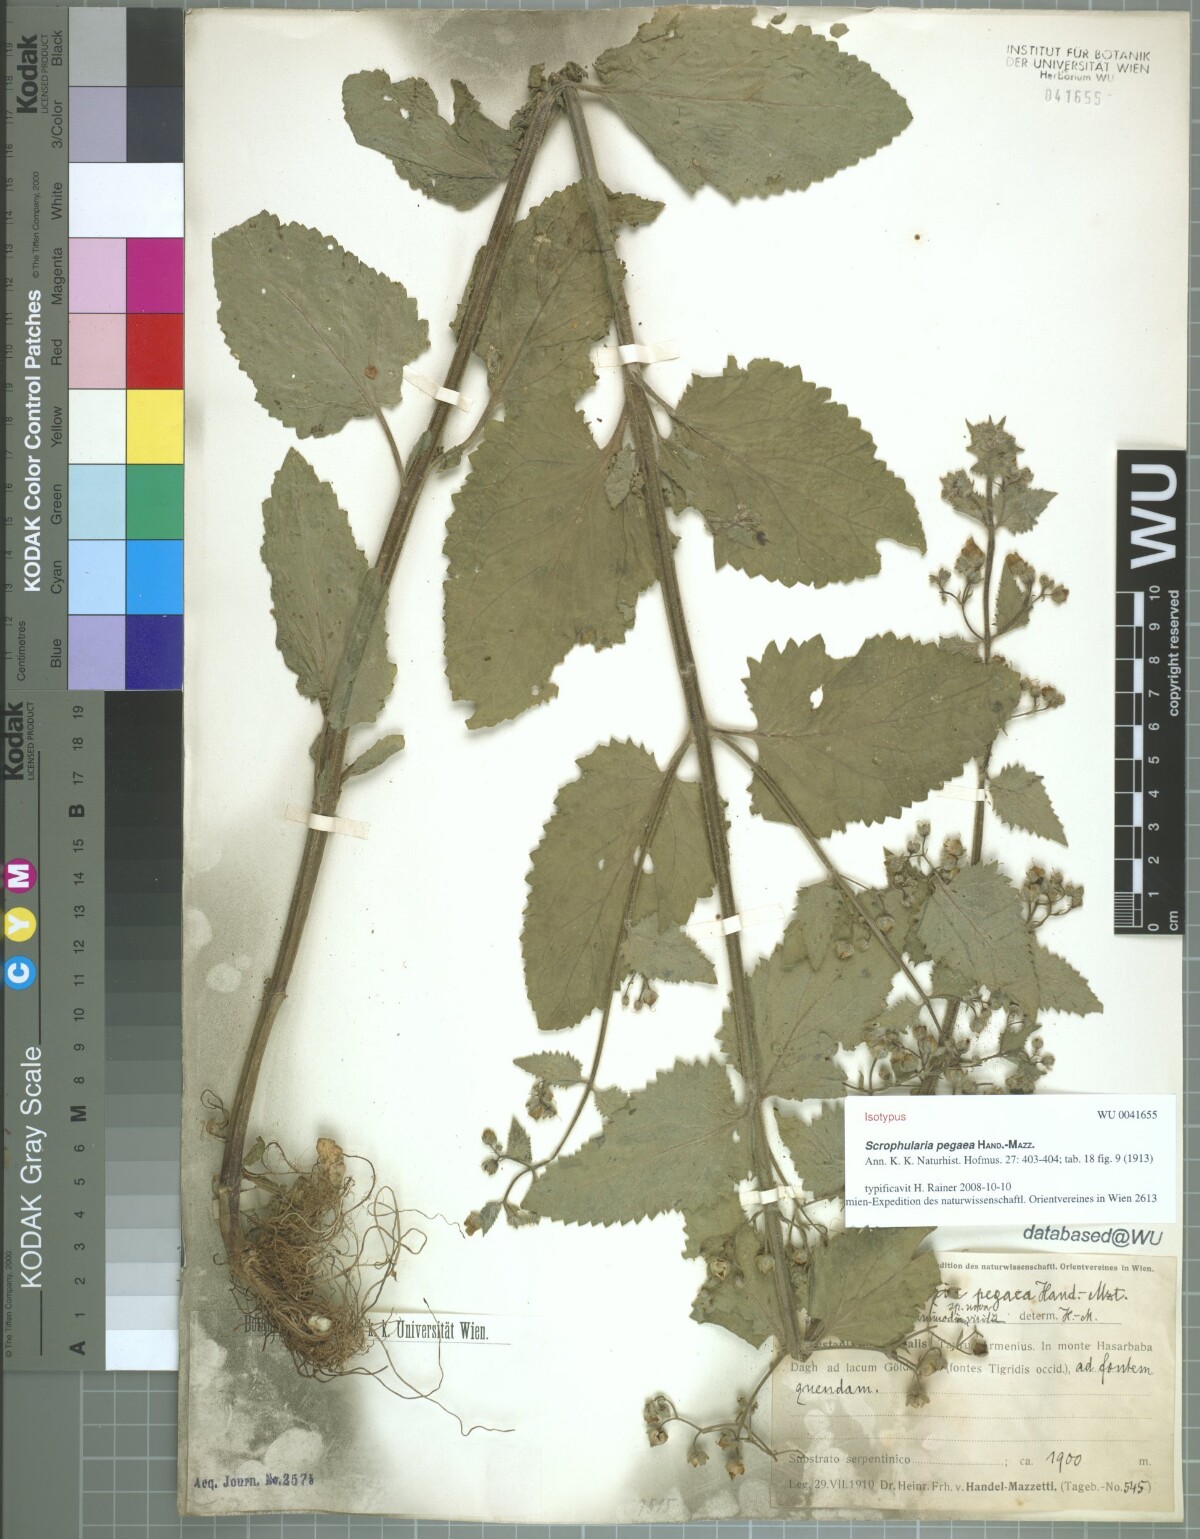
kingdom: Plantae
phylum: Tracheophyta
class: Magnoliopsida
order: Lamiales
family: Scrophulariaceae
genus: Scrophularia
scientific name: Scrophularia pegaea
